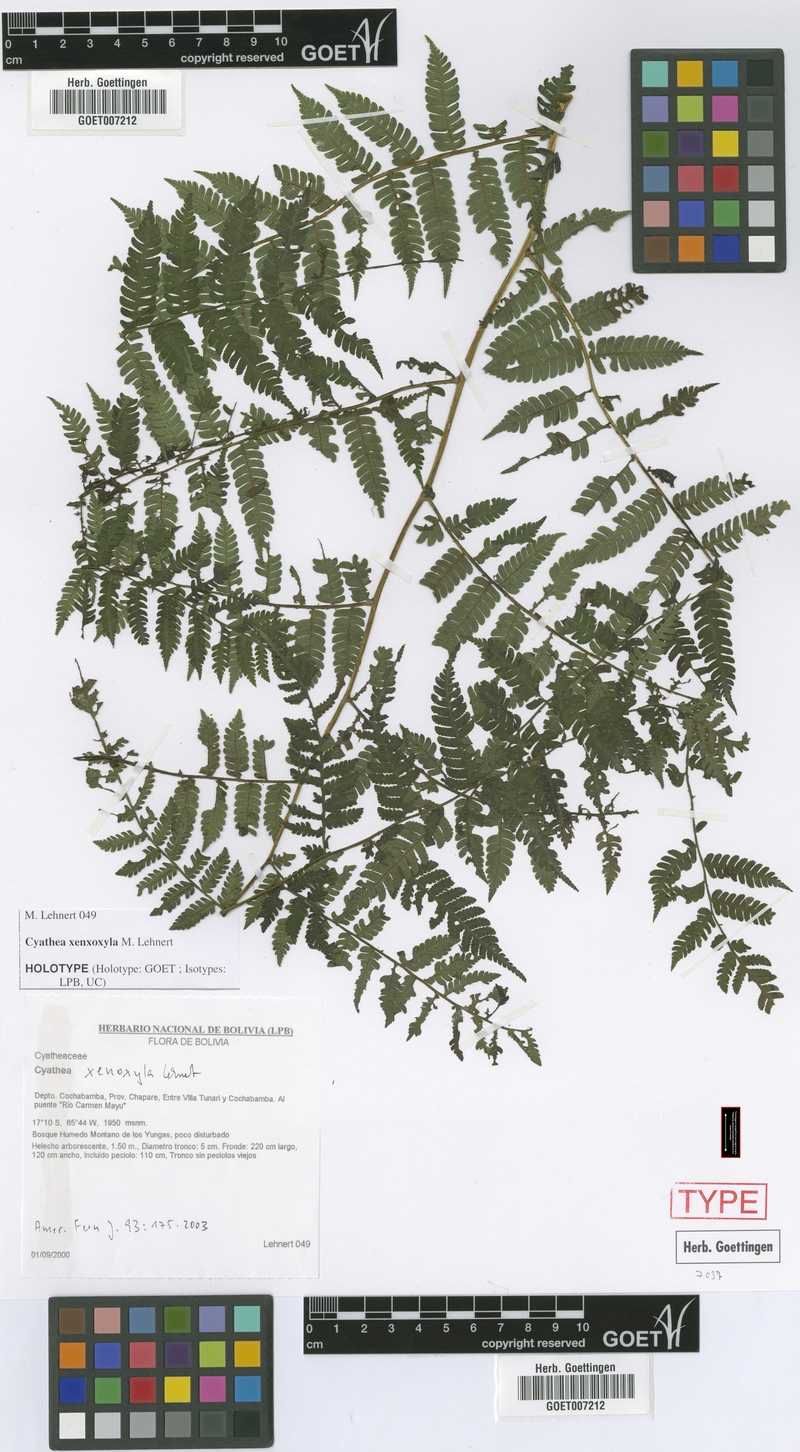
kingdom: Plantae
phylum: Tracheophyta
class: Polypodiopsida
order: Cyatheales
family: Cyatheaceae
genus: Cyathea
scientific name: Cyathea planadae
